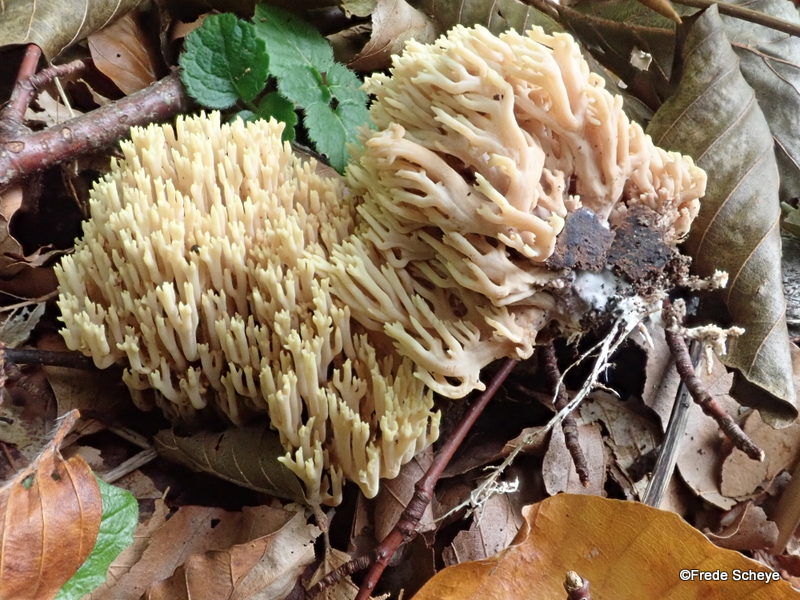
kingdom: Fungi
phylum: Basidiomycota
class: Agaricomycetes
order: Gomphales
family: Gomphaceae
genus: Ramaria
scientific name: Ramaria stricta
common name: rank koralsvamp
